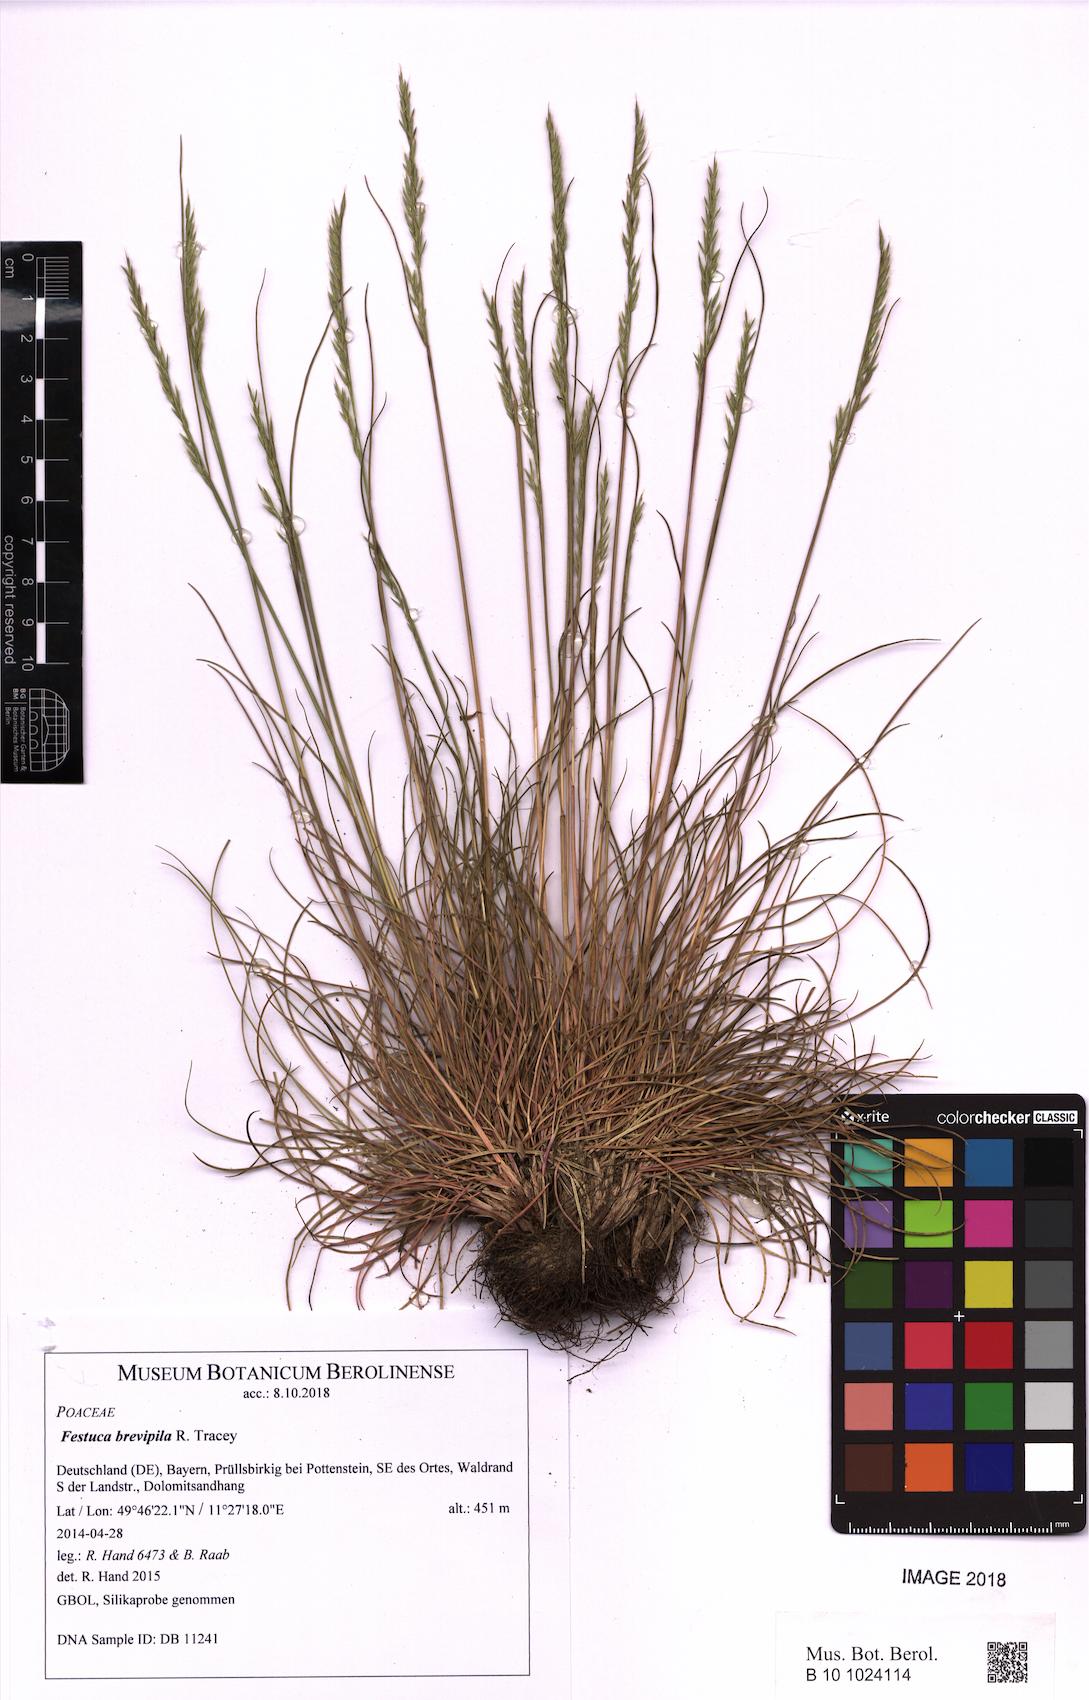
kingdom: Plantae
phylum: Tracheophyta
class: Liliopsida
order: Poales
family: Poaceae
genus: Festuca
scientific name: Festuca trachyphylla
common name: Hard fescue
